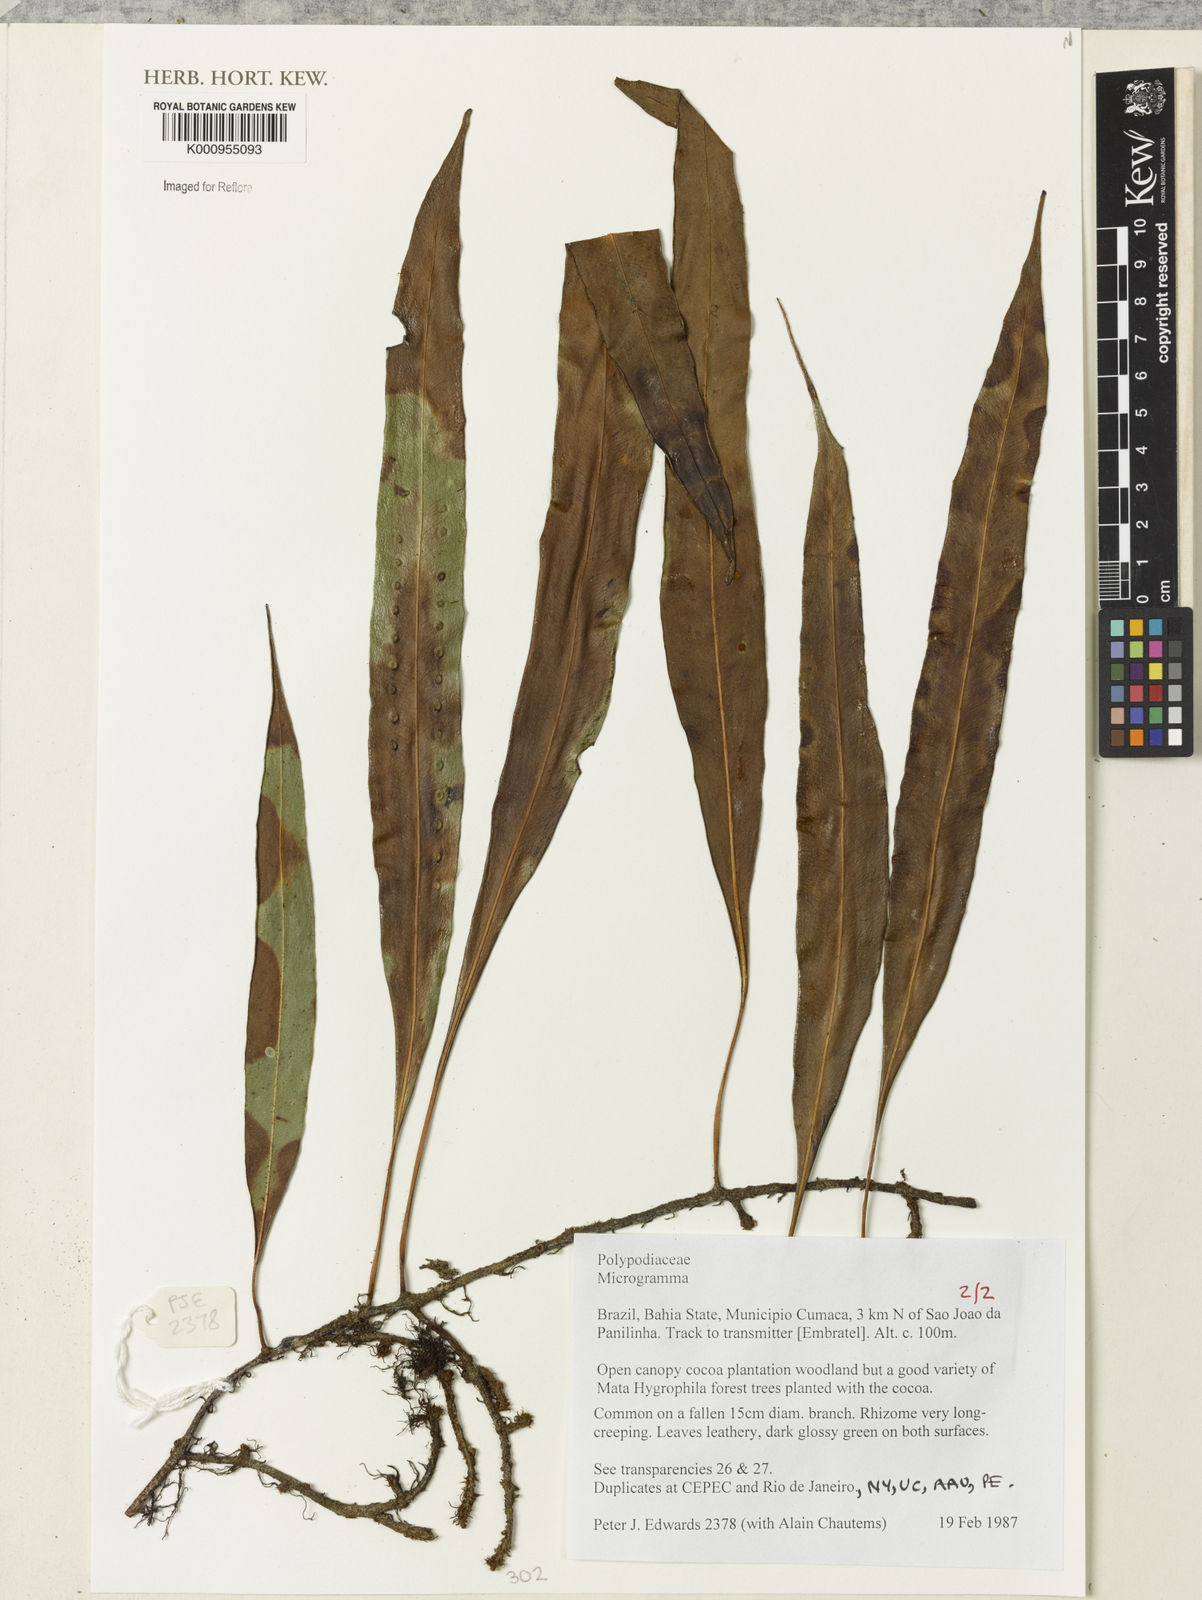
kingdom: Plantae
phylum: Tracheophyta
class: Polypodiopsida
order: Polypodiales
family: Polypodiaceae
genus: Microgramma
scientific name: Microgramma
